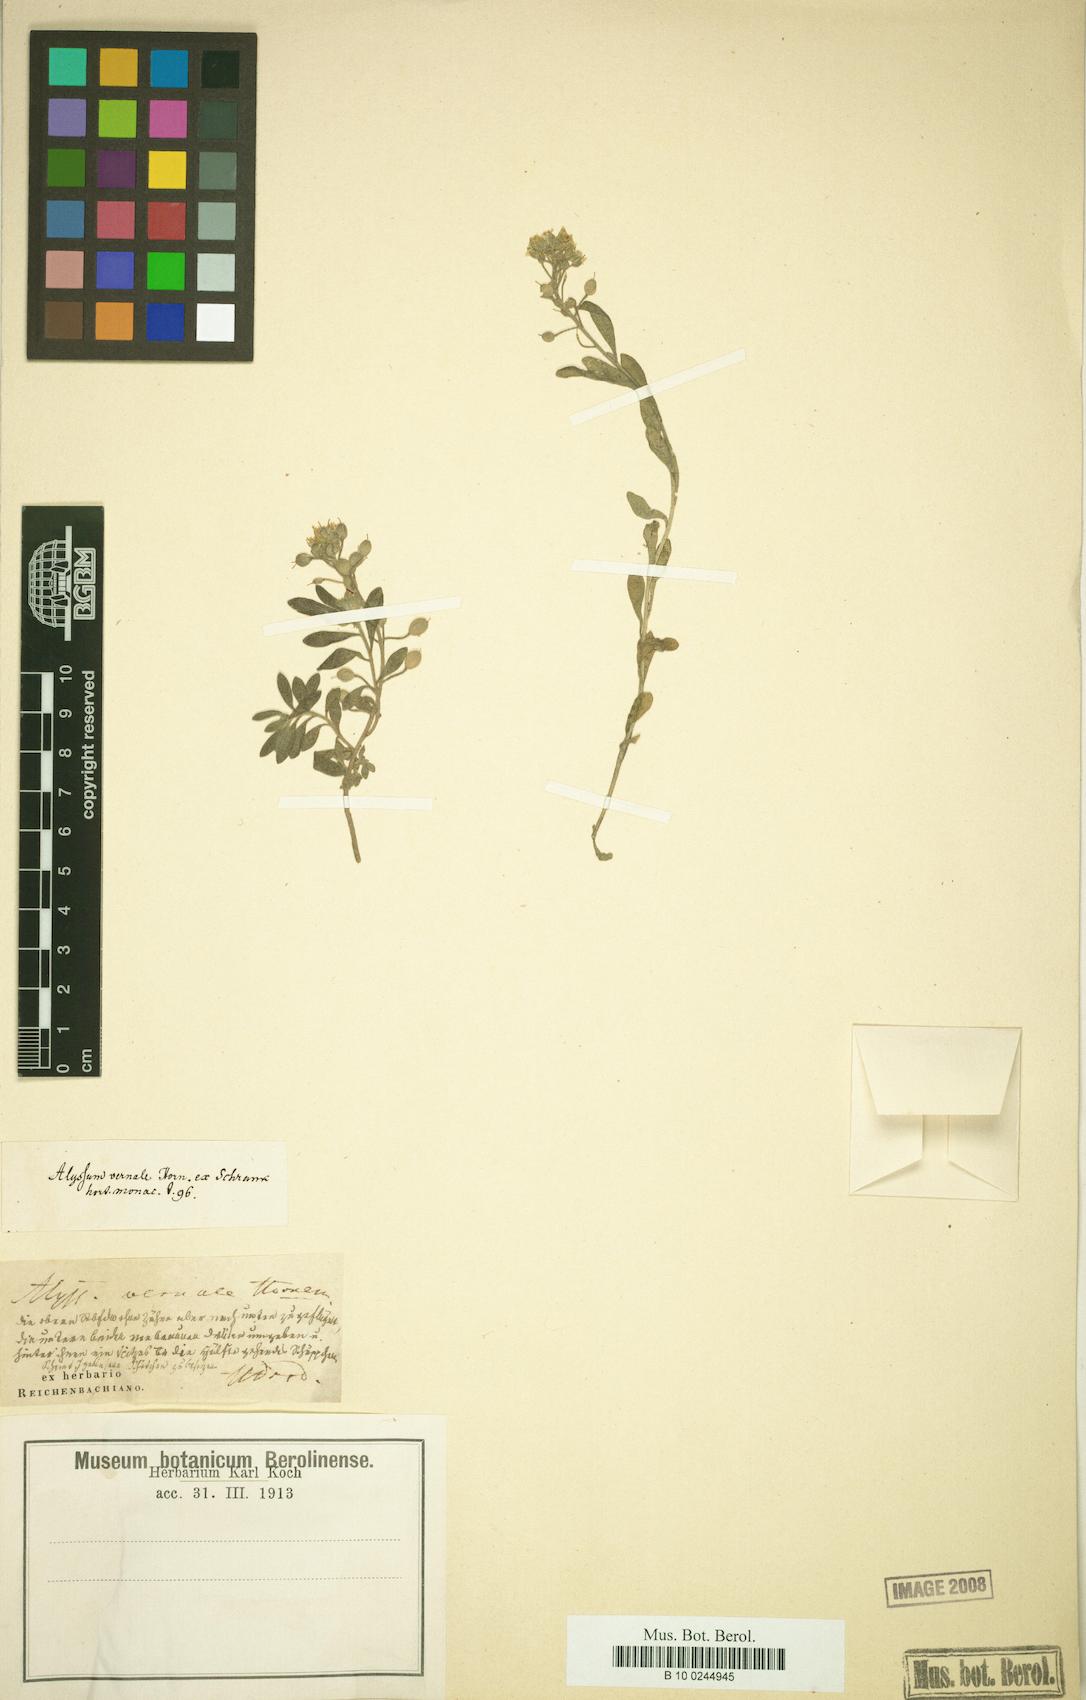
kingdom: Plantae
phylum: Tracheophyta
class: Magnoliopsida
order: Brassicales
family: Brassicaceae
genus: Alyssum
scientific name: Alyssum vernale
